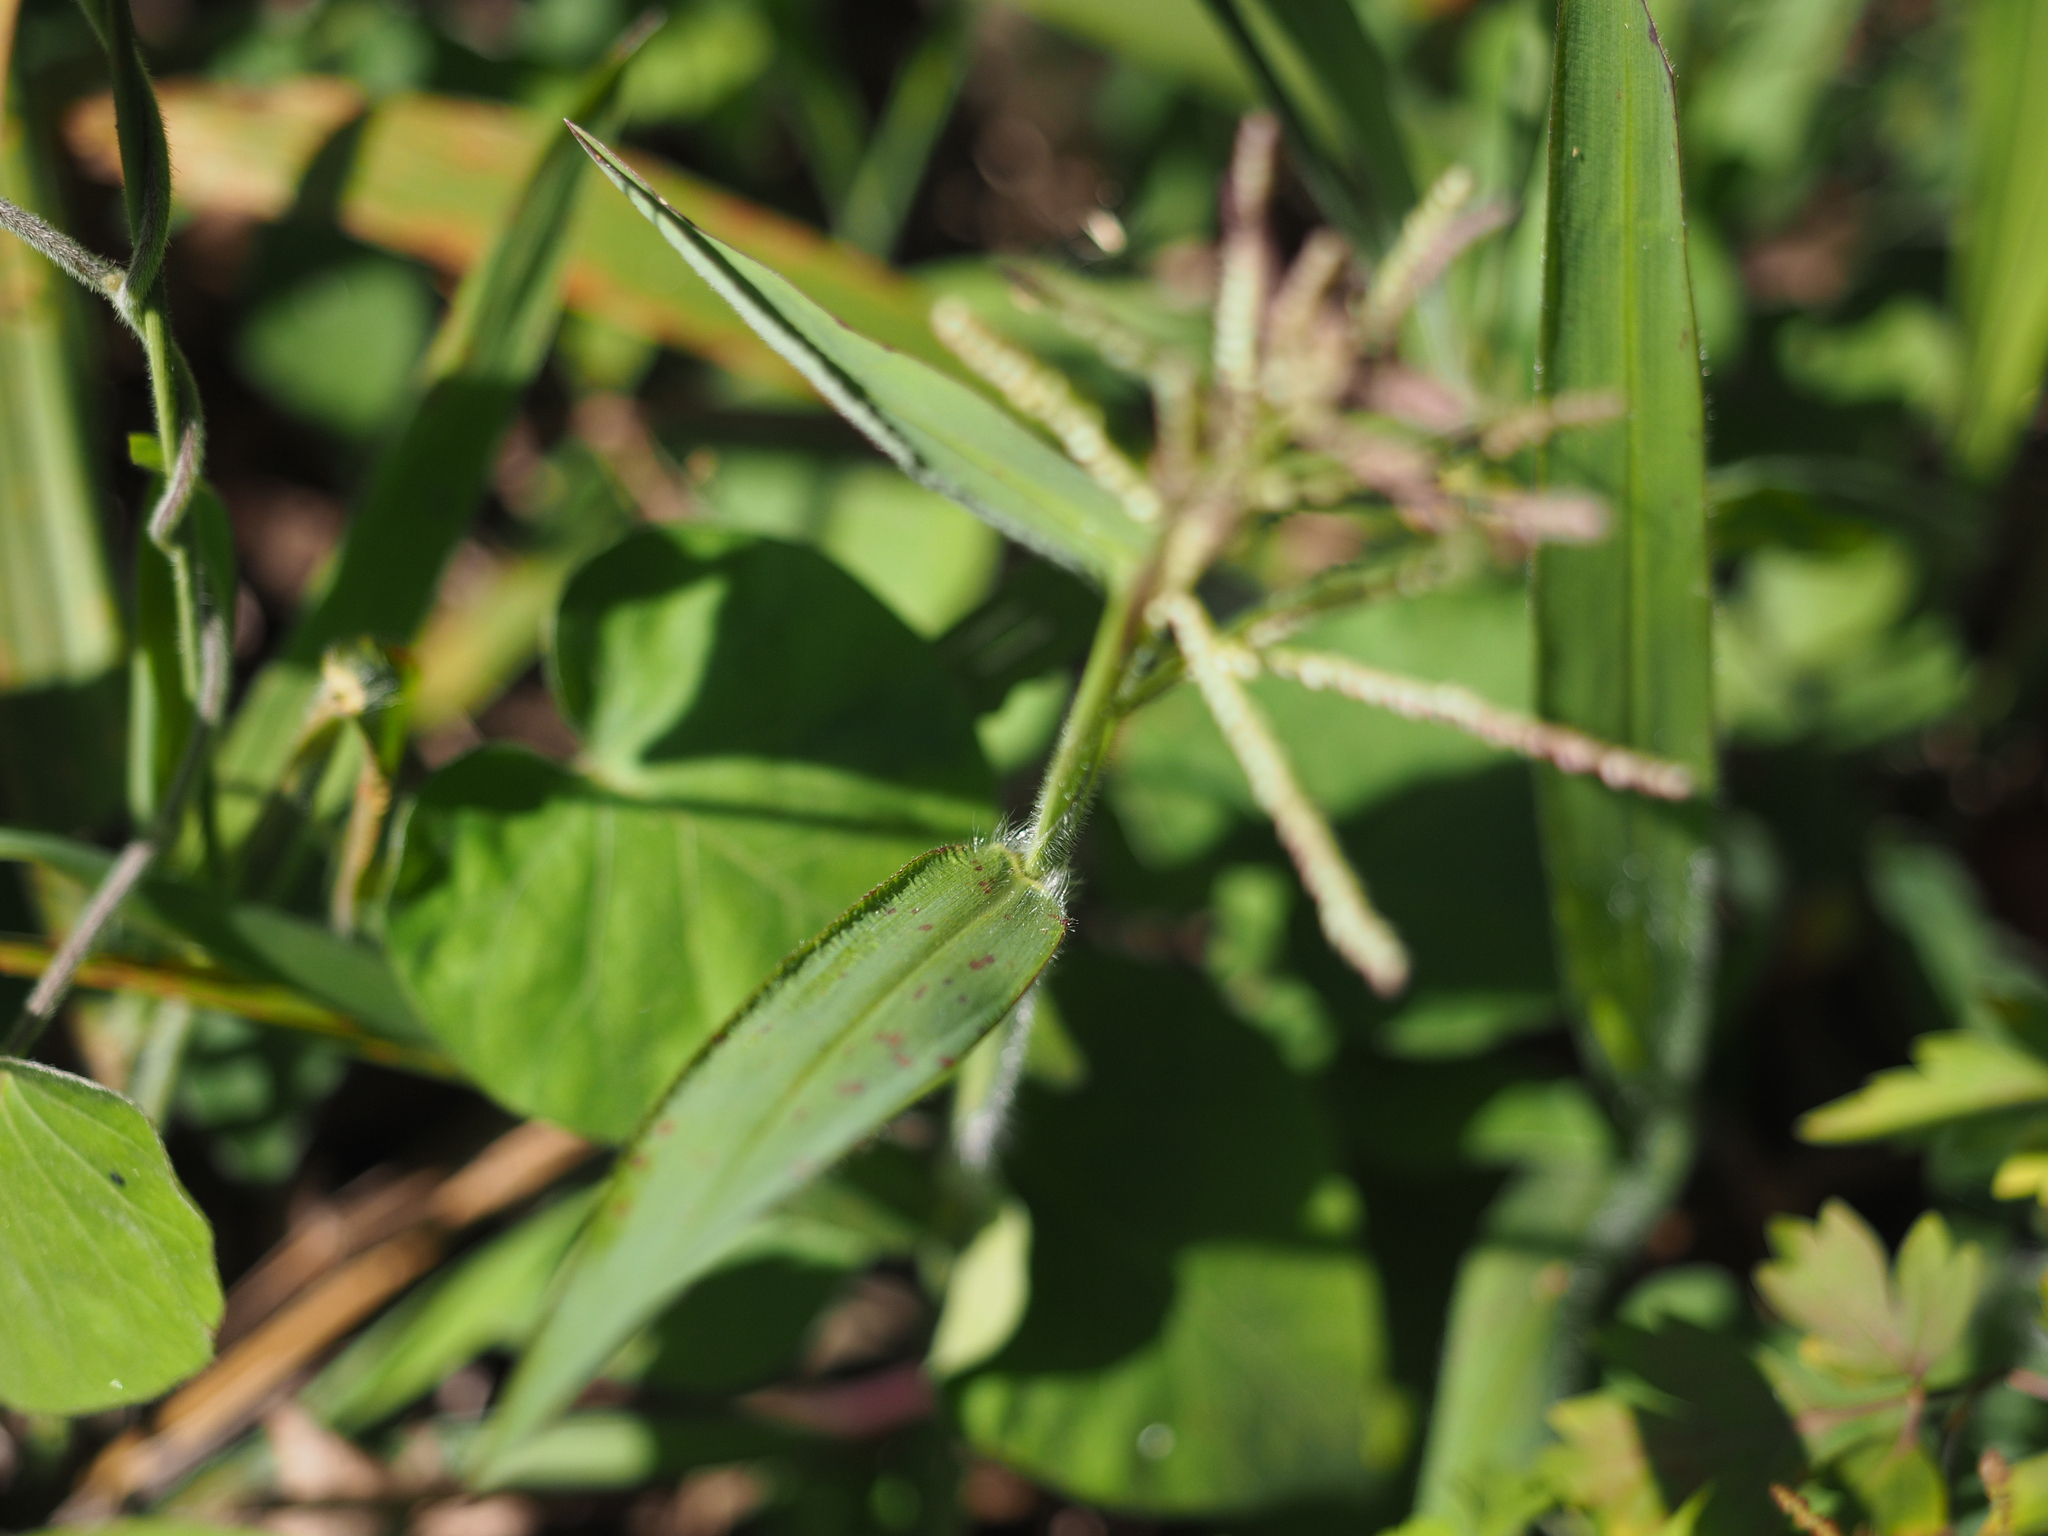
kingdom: Plantae
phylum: Tracheophyta
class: Liliopsida
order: Poales
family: Poaceae
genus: Paspalum
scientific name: Paspalum paniculatum
